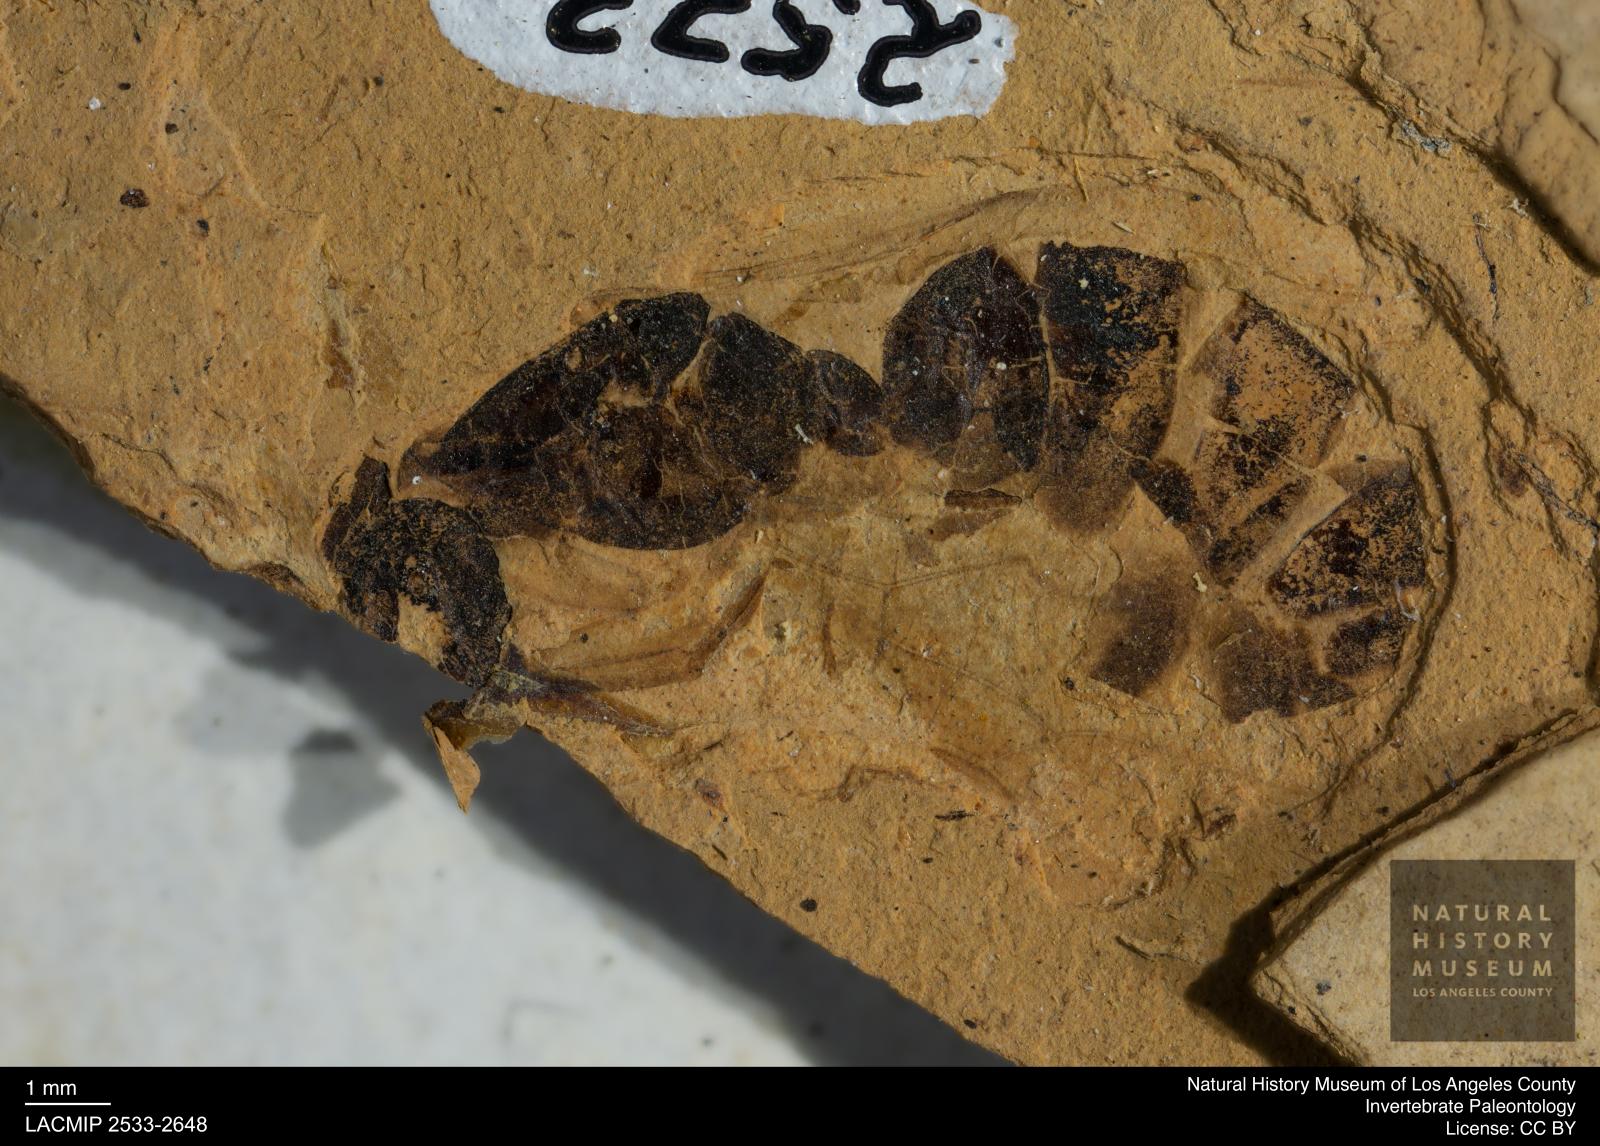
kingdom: Animalia
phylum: Arthropoda
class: Insecta
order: Hymenoptera
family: Formicidae
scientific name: Formicidae
